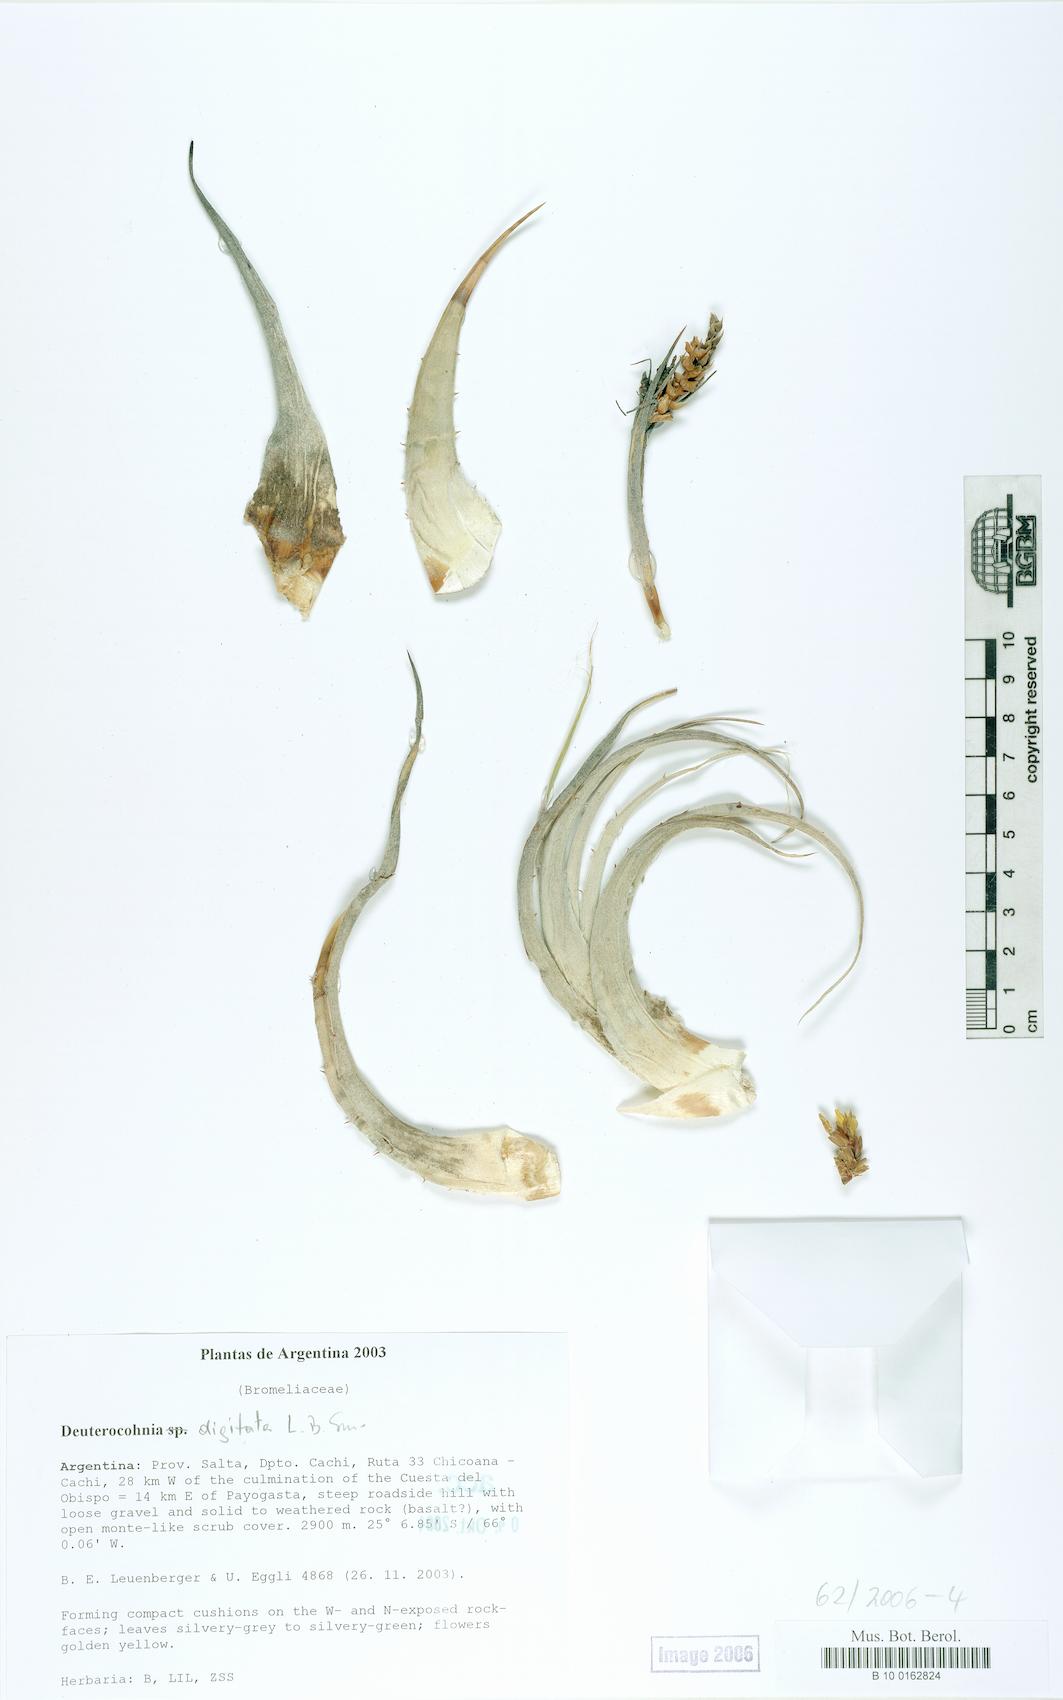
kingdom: Plantae
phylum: Tracheophyta
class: Liliopsida
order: Poales
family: Bromeliaceae
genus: Deuterocohnia
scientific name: Deuterocohnia digitata
